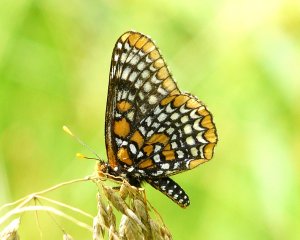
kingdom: Animalia
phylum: Arthropoda
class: Insecta
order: Lepidoptera
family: Nymphalidae
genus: Euphydryas
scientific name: Euphydryas phaeton
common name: Baltimore Checkerspot
